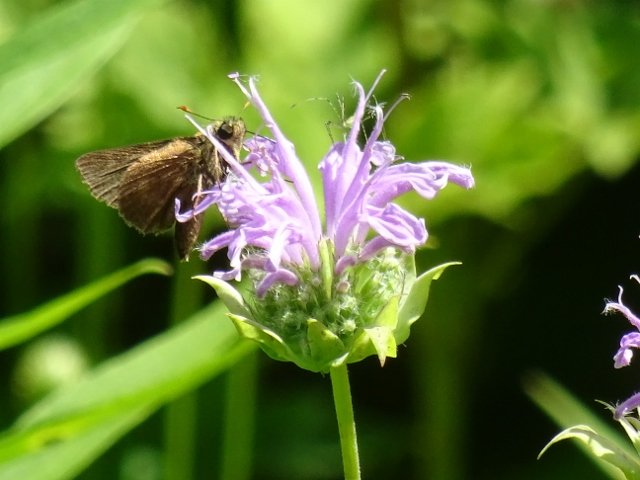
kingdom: Animalia
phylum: Arthropoda
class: Insecta
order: Lepidoptera
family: Hesperiidae
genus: Euphyes
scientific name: Euphyes vestris
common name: Dun Skipper
